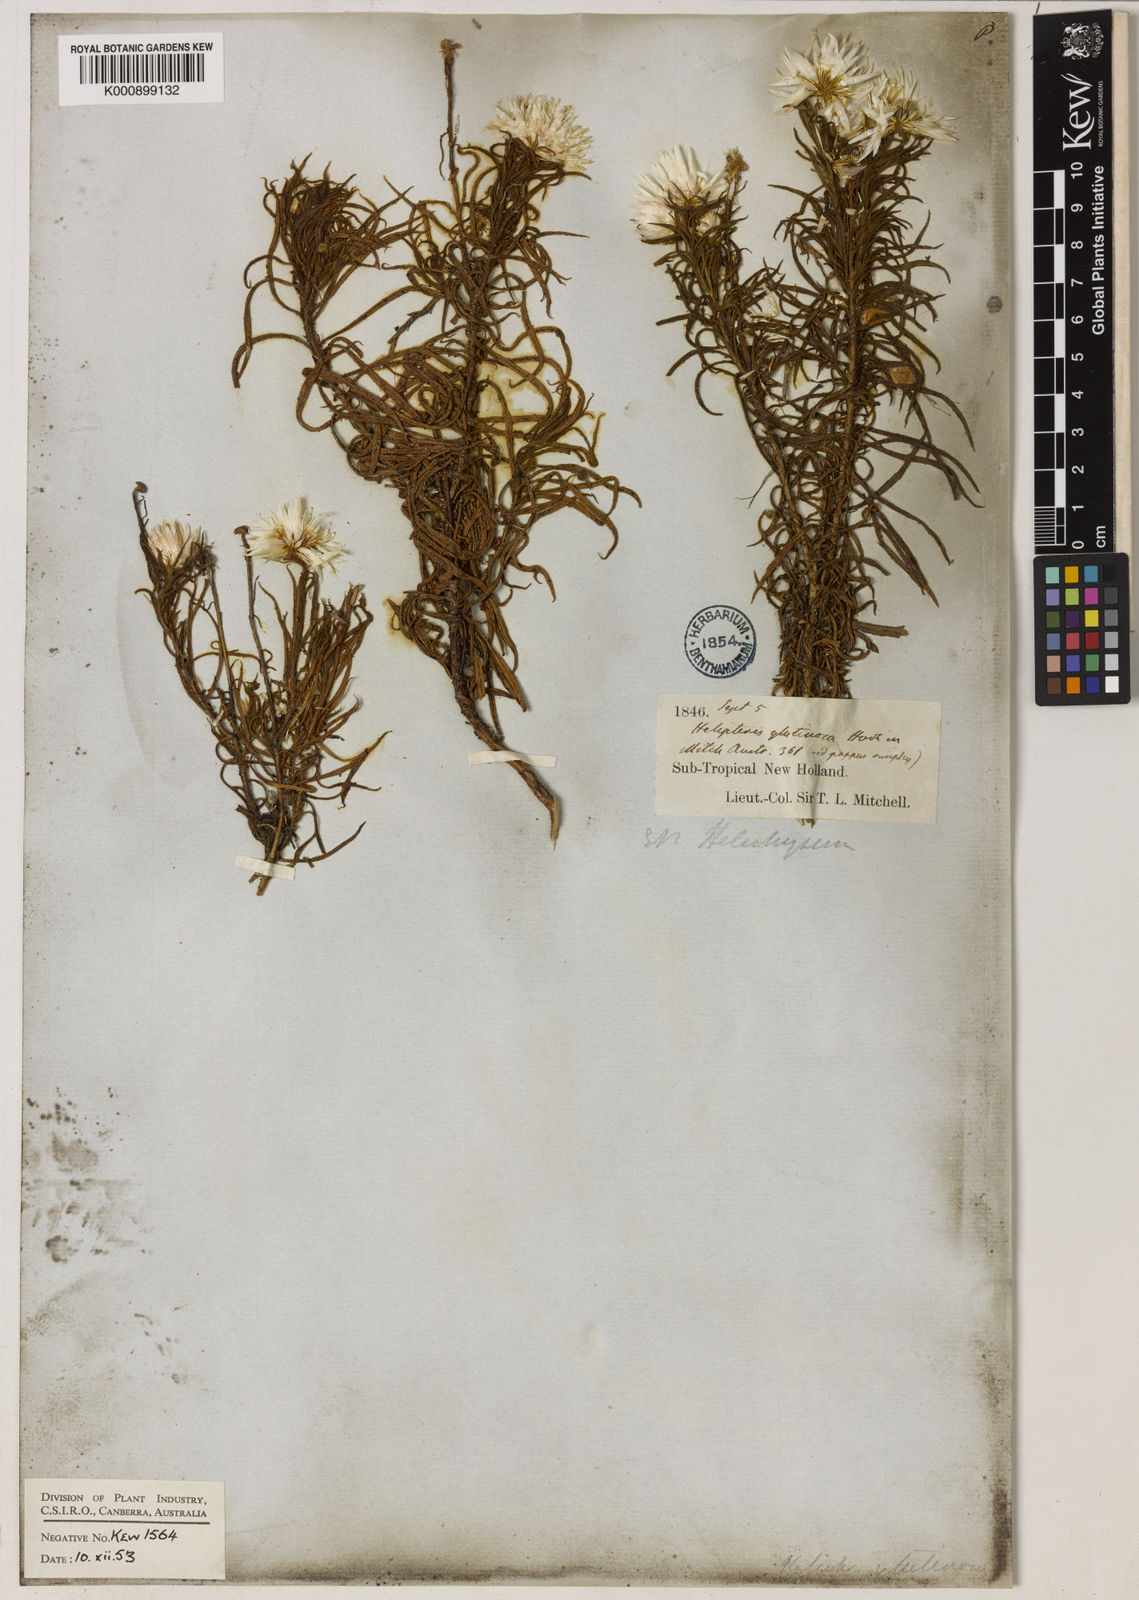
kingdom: Plantae
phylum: Tracheophyta
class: Magnoliopsida
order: Asterales
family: Asteraceae
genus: Coronidium
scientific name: Coronidium glutinosum
